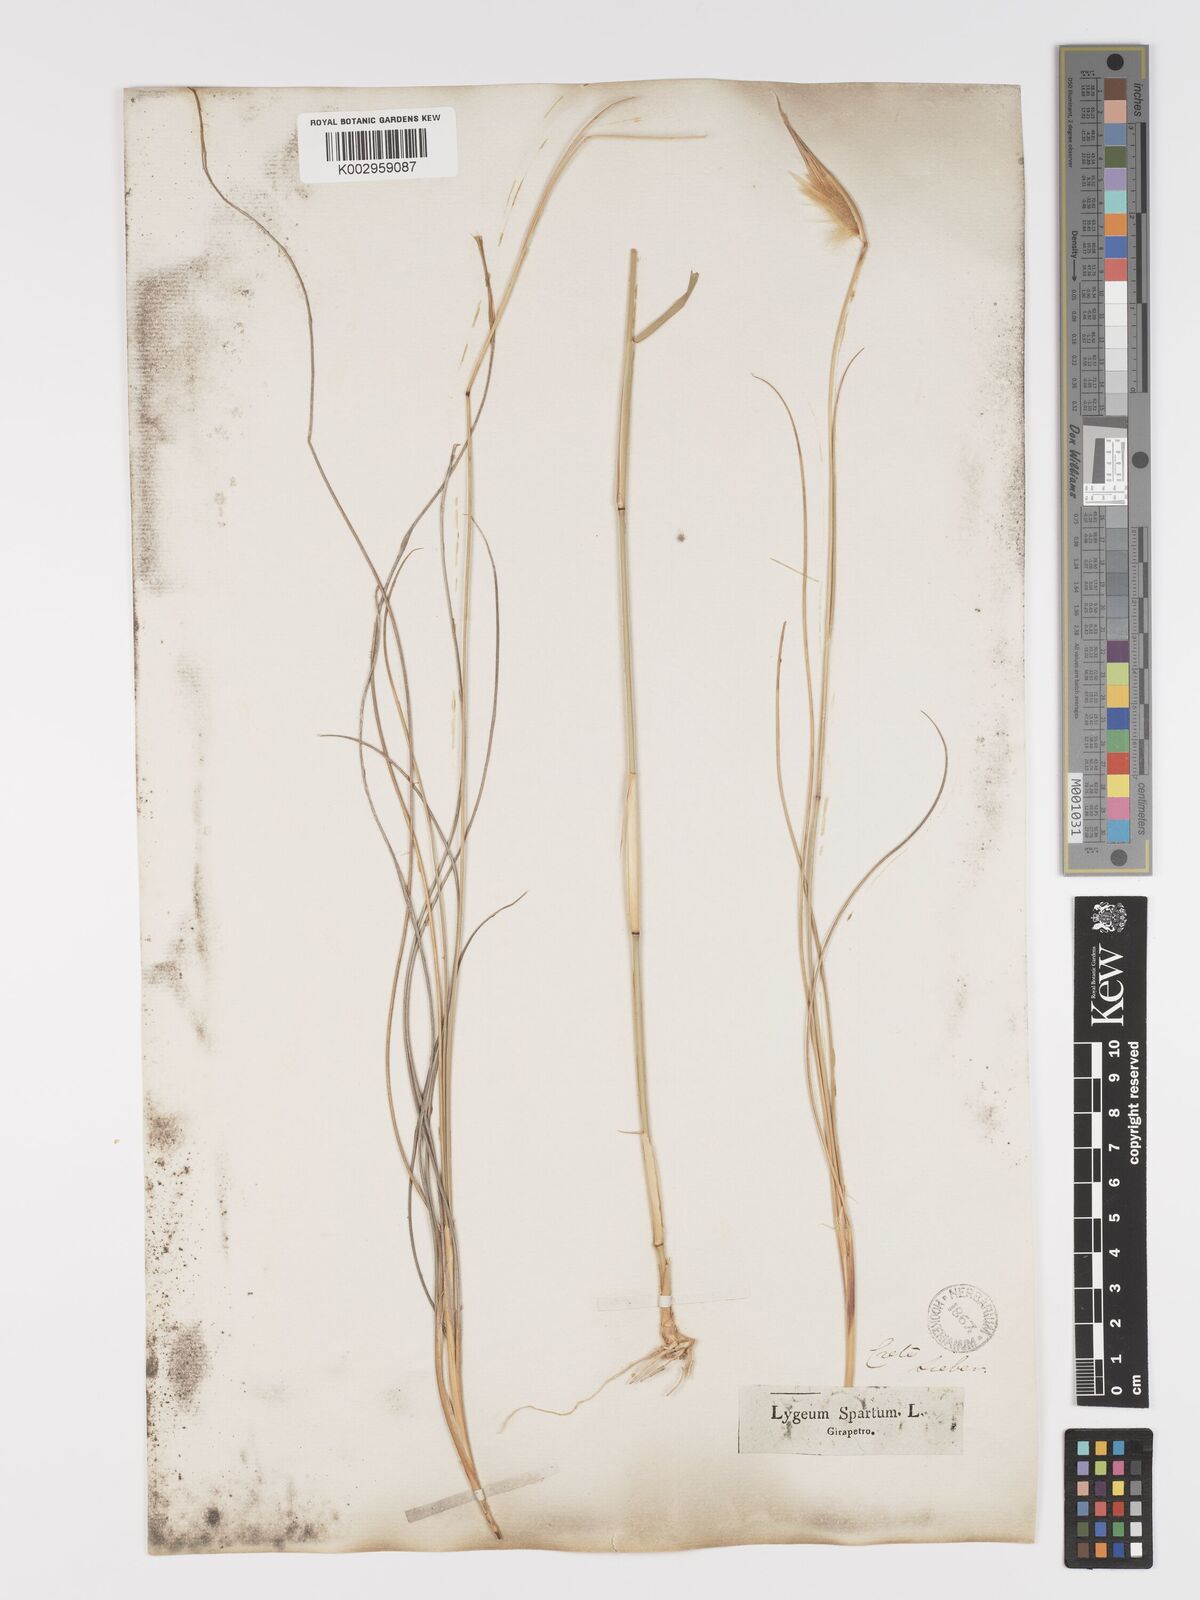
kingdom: Plantae
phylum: Tracheophyta
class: Liliopsida
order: Poales
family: Poaceae
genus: Lygeum
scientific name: Lygeum spartum
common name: Albardine
